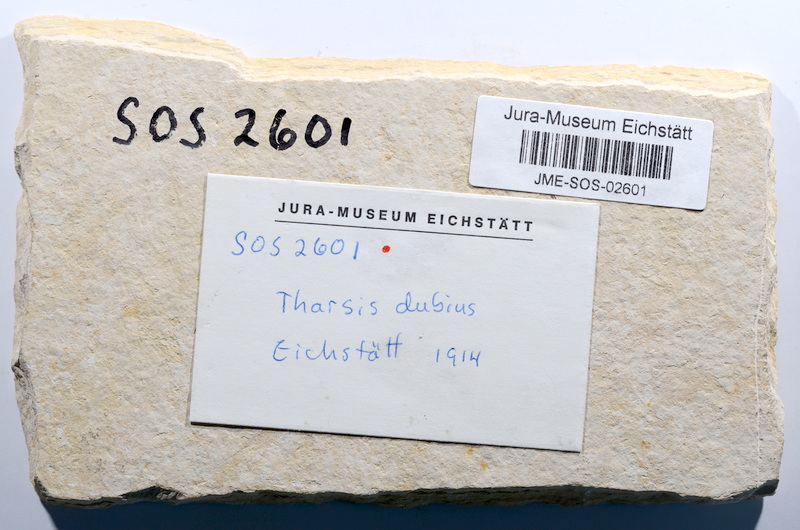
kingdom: Animalia
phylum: Chordata
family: Ascalaboidae
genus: Tharsis
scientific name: Tharsis dubius
